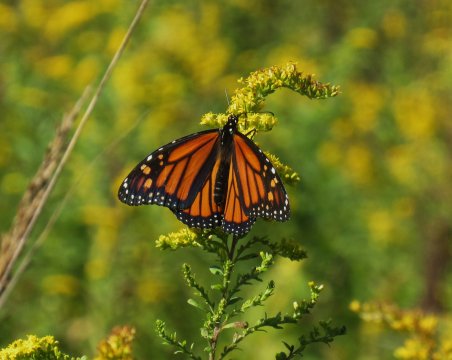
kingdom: Animalia
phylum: Arthropoda
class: Insecta
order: Lepidoptera
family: Nymphalidae
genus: Danaus
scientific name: Danaus plexippus
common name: Monarch
